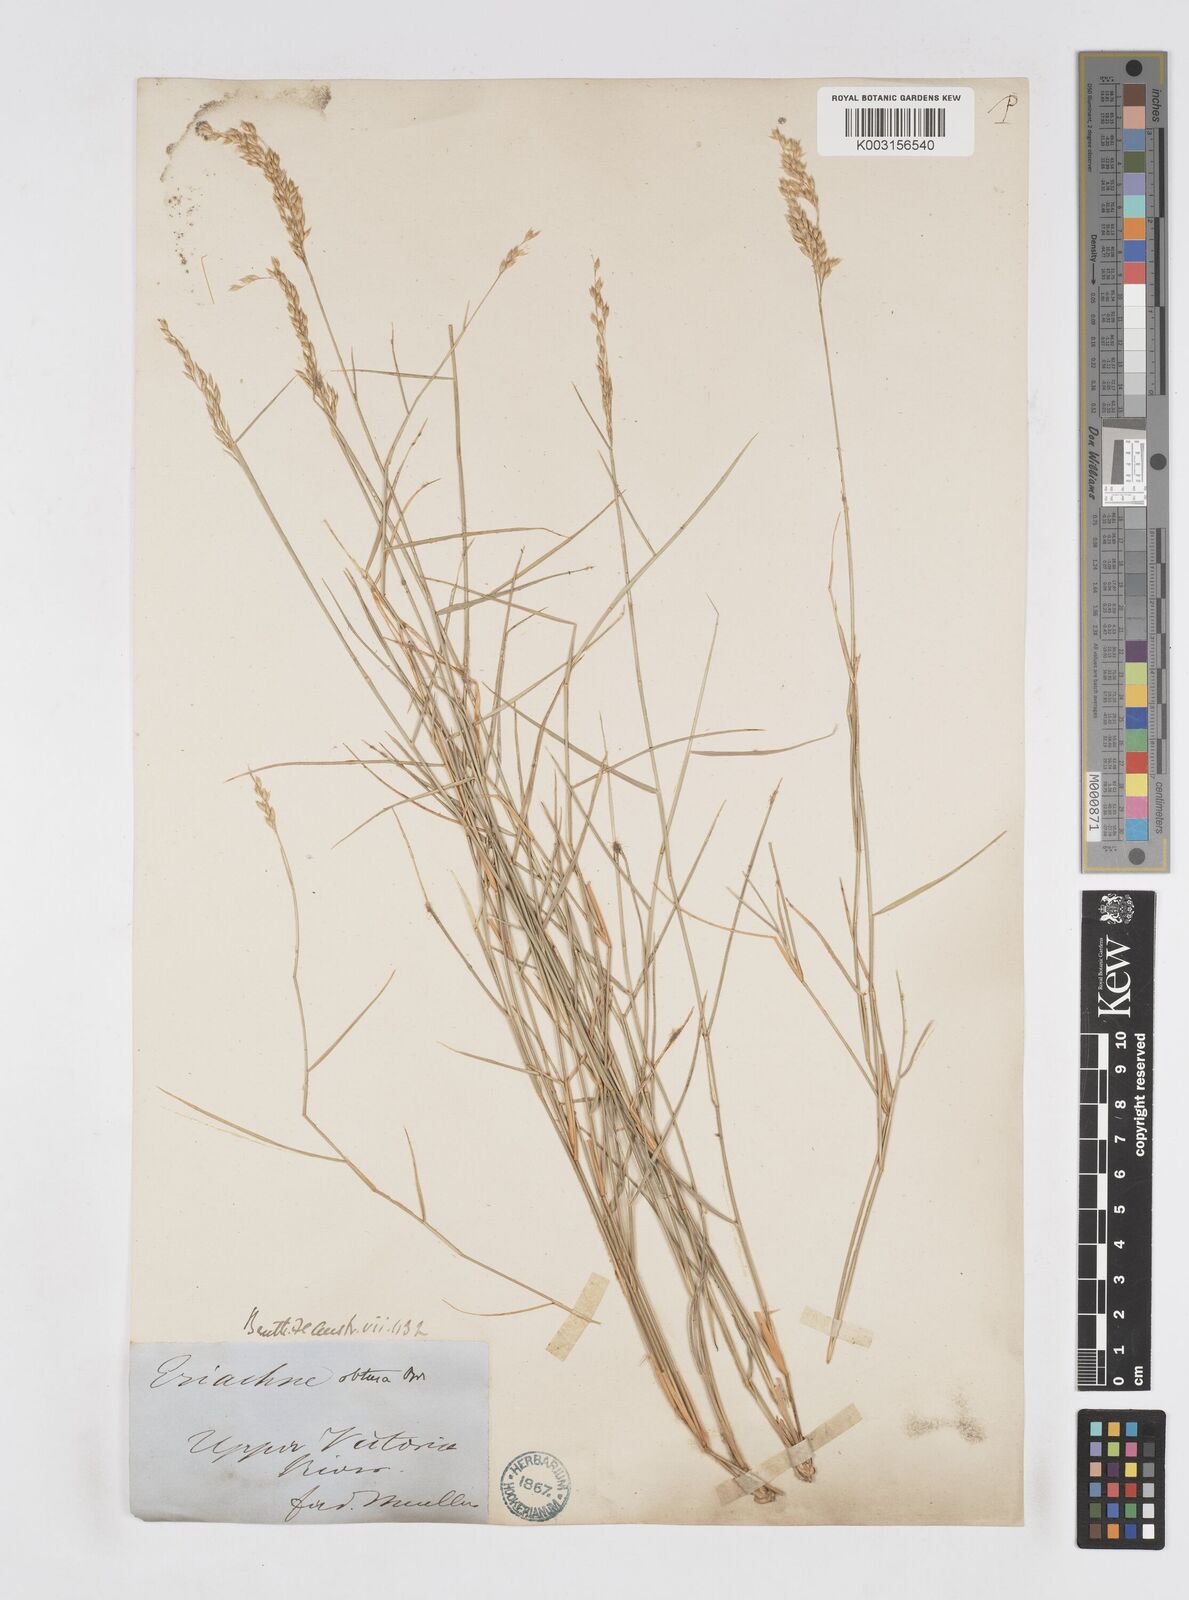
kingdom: Plantae
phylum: Tracheophyta
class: Liliopsida
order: Poales
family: Poaceae
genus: Eriachne
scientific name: Eriachne obtusa
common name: Northern wanderrie grass
